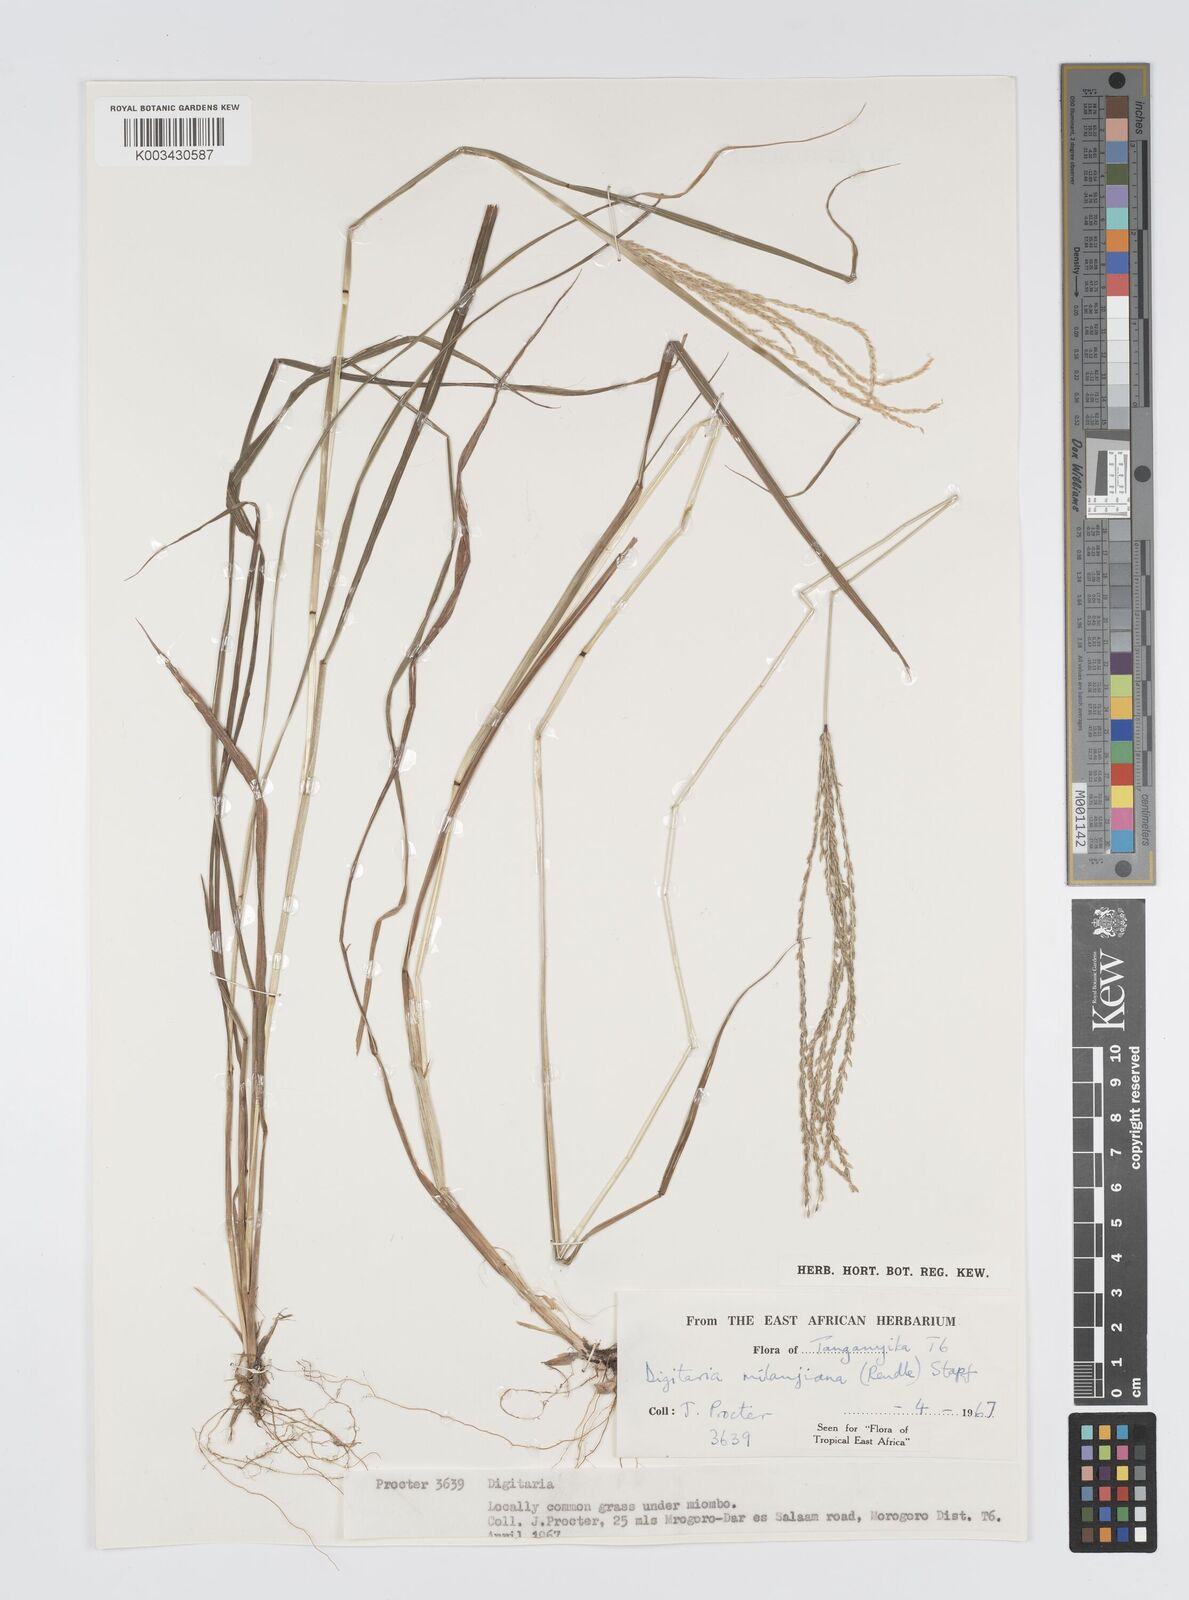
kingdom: Plantae
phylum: Tracheophyta
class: Liliopsida
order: Poales
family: Poaceae
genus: Digitaria
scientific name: Digitaria milanjiana
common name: Madagascar crabgrass
